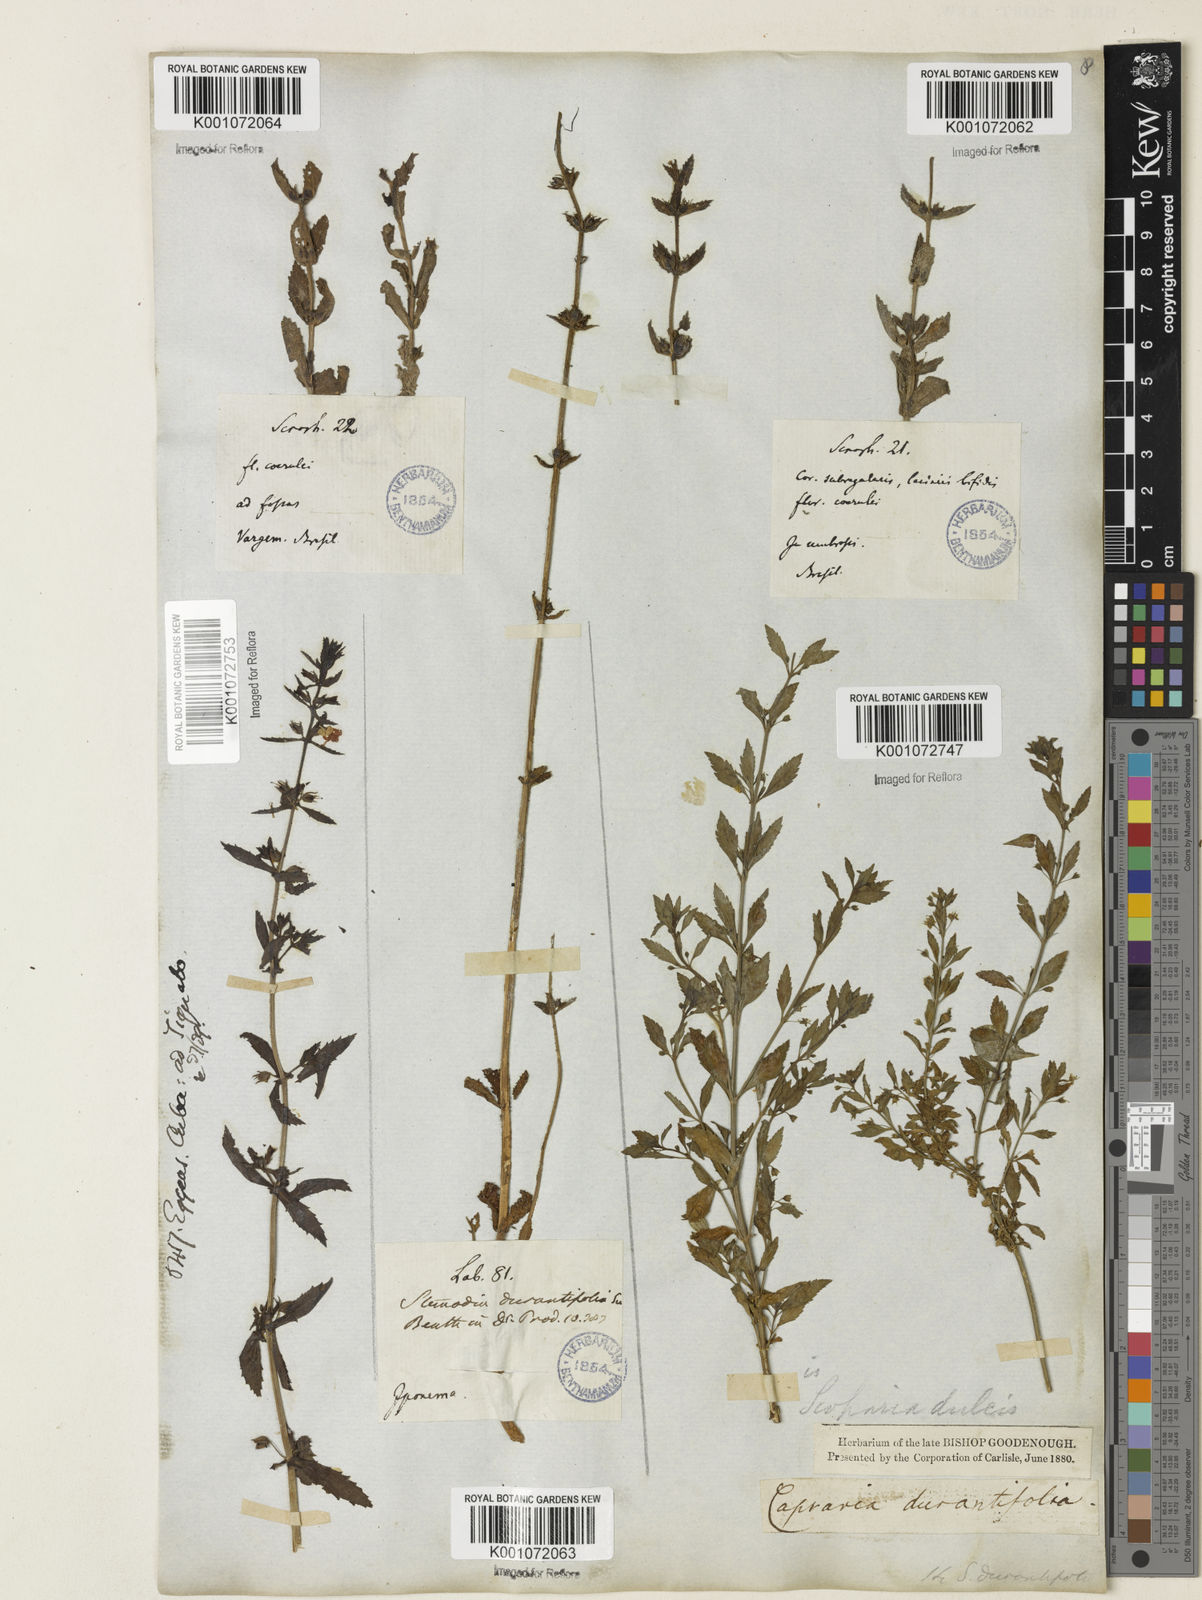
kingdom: Plantae
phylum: Tracheophyta
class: Magnoliopsida
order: Lamiales
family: Plantaginaceae
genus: Scoparia
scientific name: Scoparia dulcis
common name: Scoparia-weed
